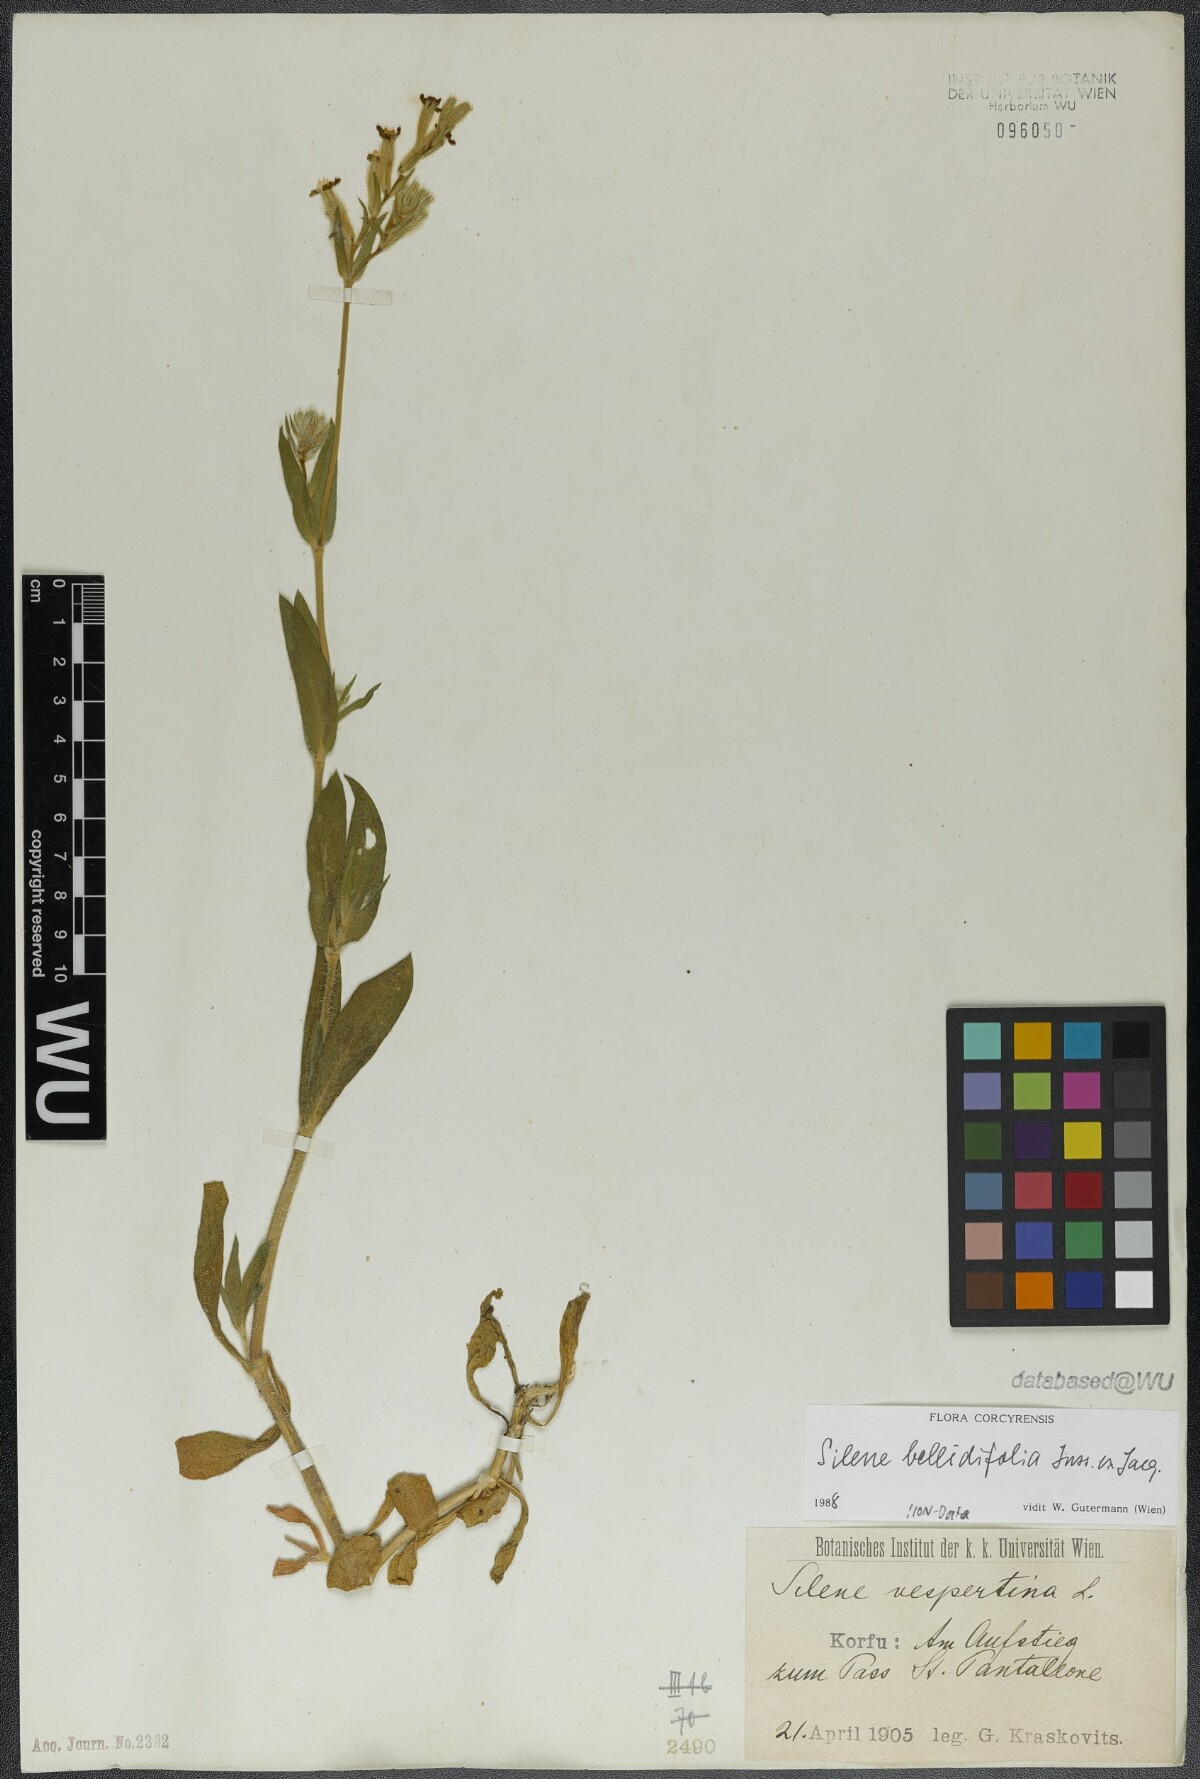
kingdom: Plantae
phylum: Tracheophyta
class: Magnoliopsida
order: Caryophyllales
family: Caryophyllaceae
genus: Silene
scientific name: Silene bellidifolia
